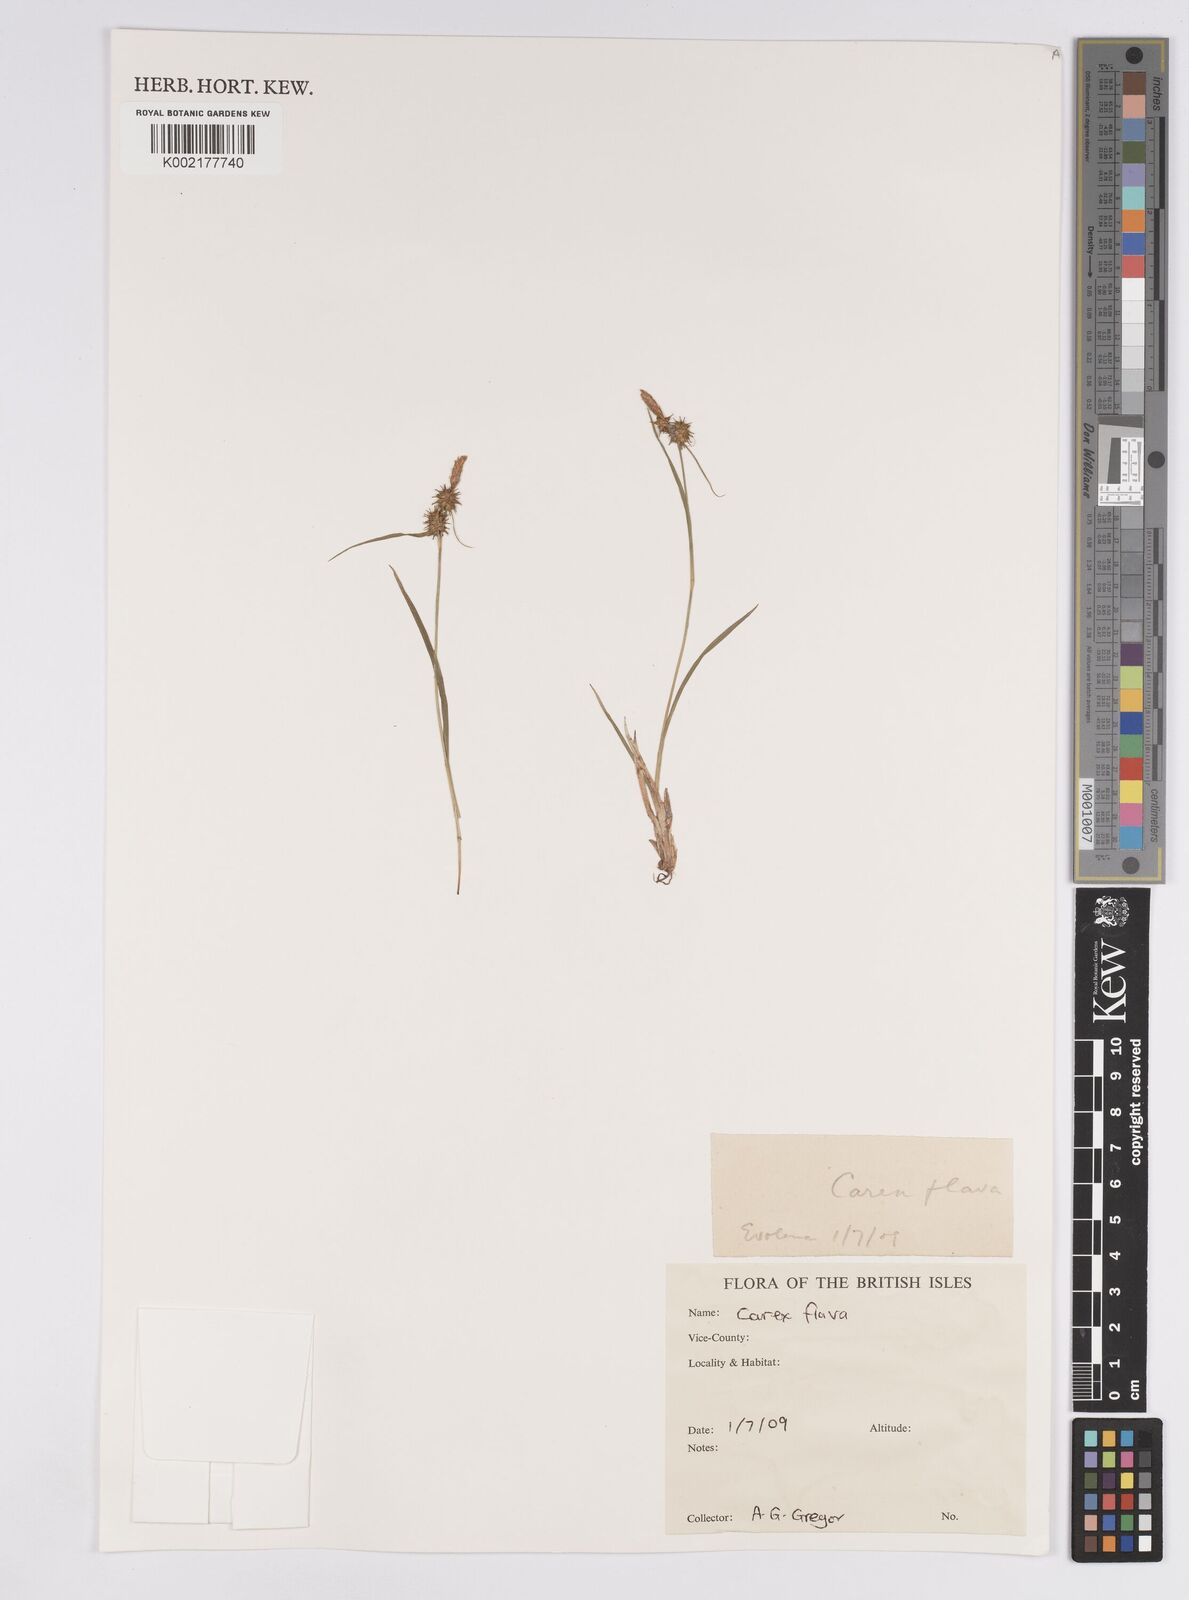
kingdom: Plantae
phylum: Tracheophyta
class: Liliopsida
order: Poales
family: Cyperaceae
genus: Carex
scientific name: Carex flava
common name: Large yellow-sedge
